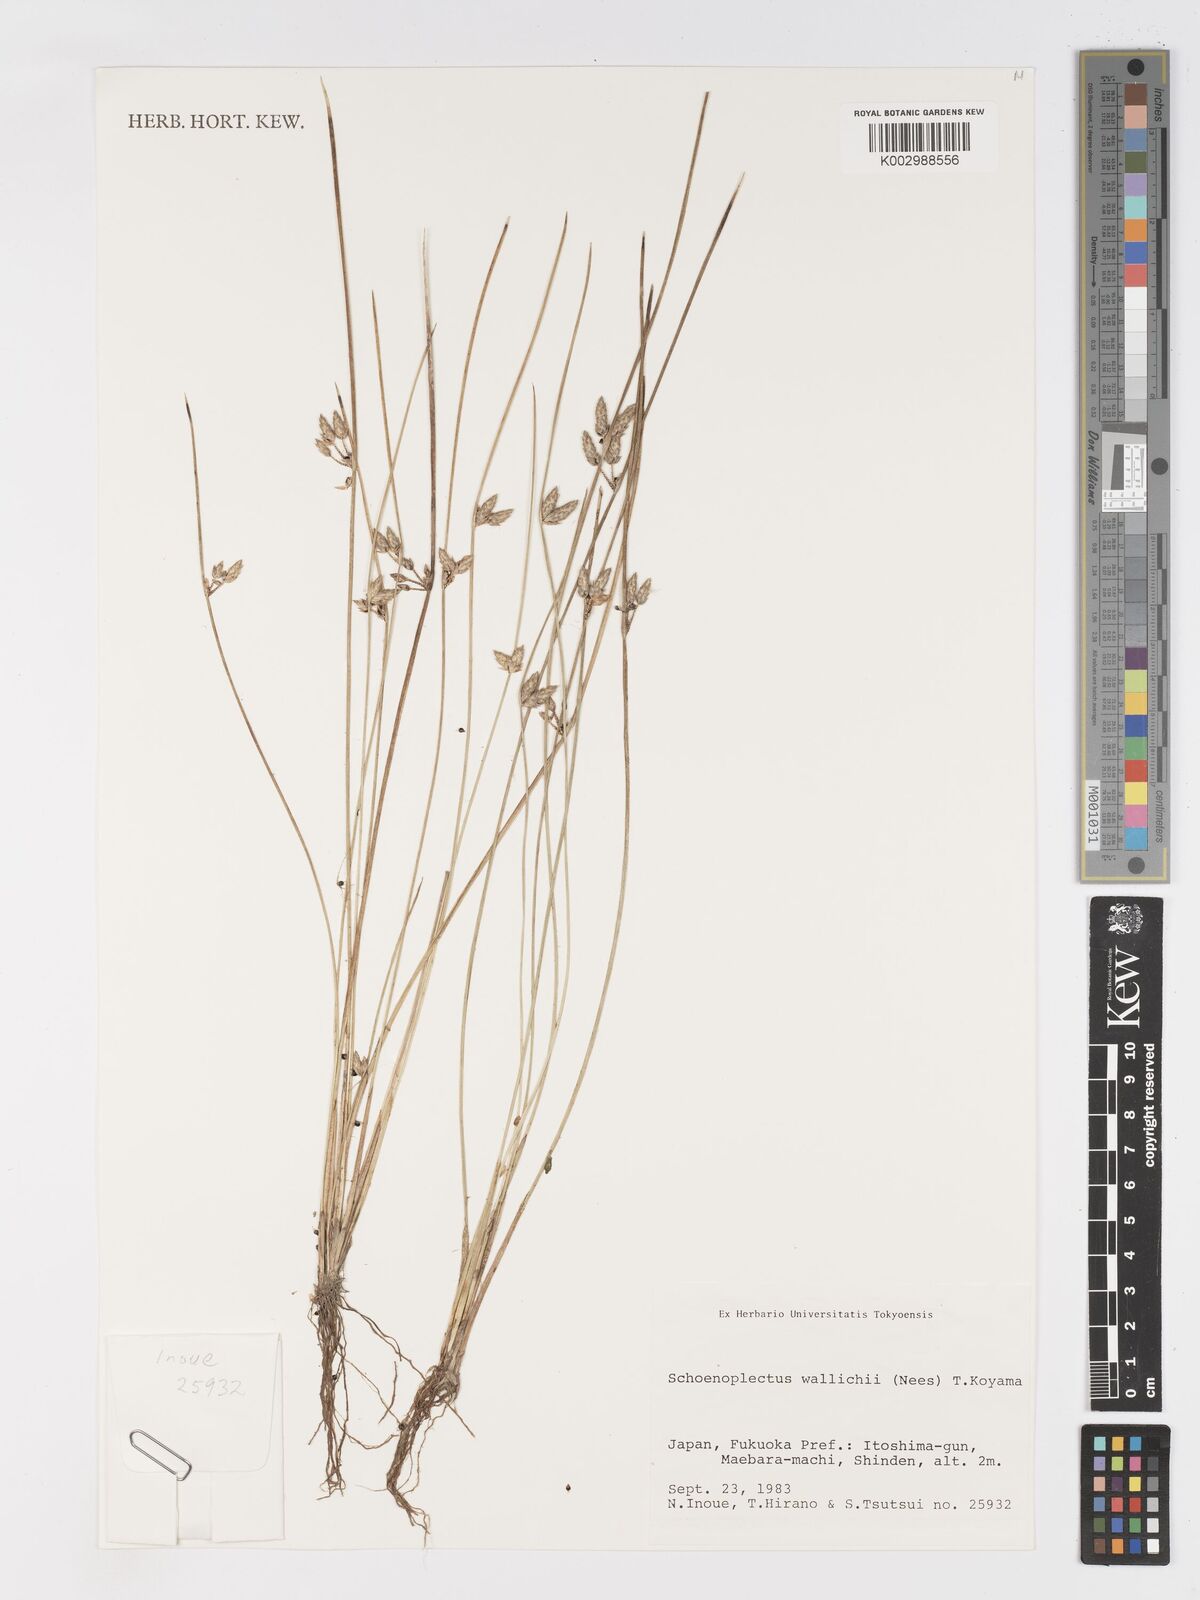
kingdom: Plantae
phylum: Tracheophyta
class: Liliopsida
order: Poales
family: Cyperaceae
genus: Schoenoplectiella
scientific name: Schoenoplectiella wallichii
